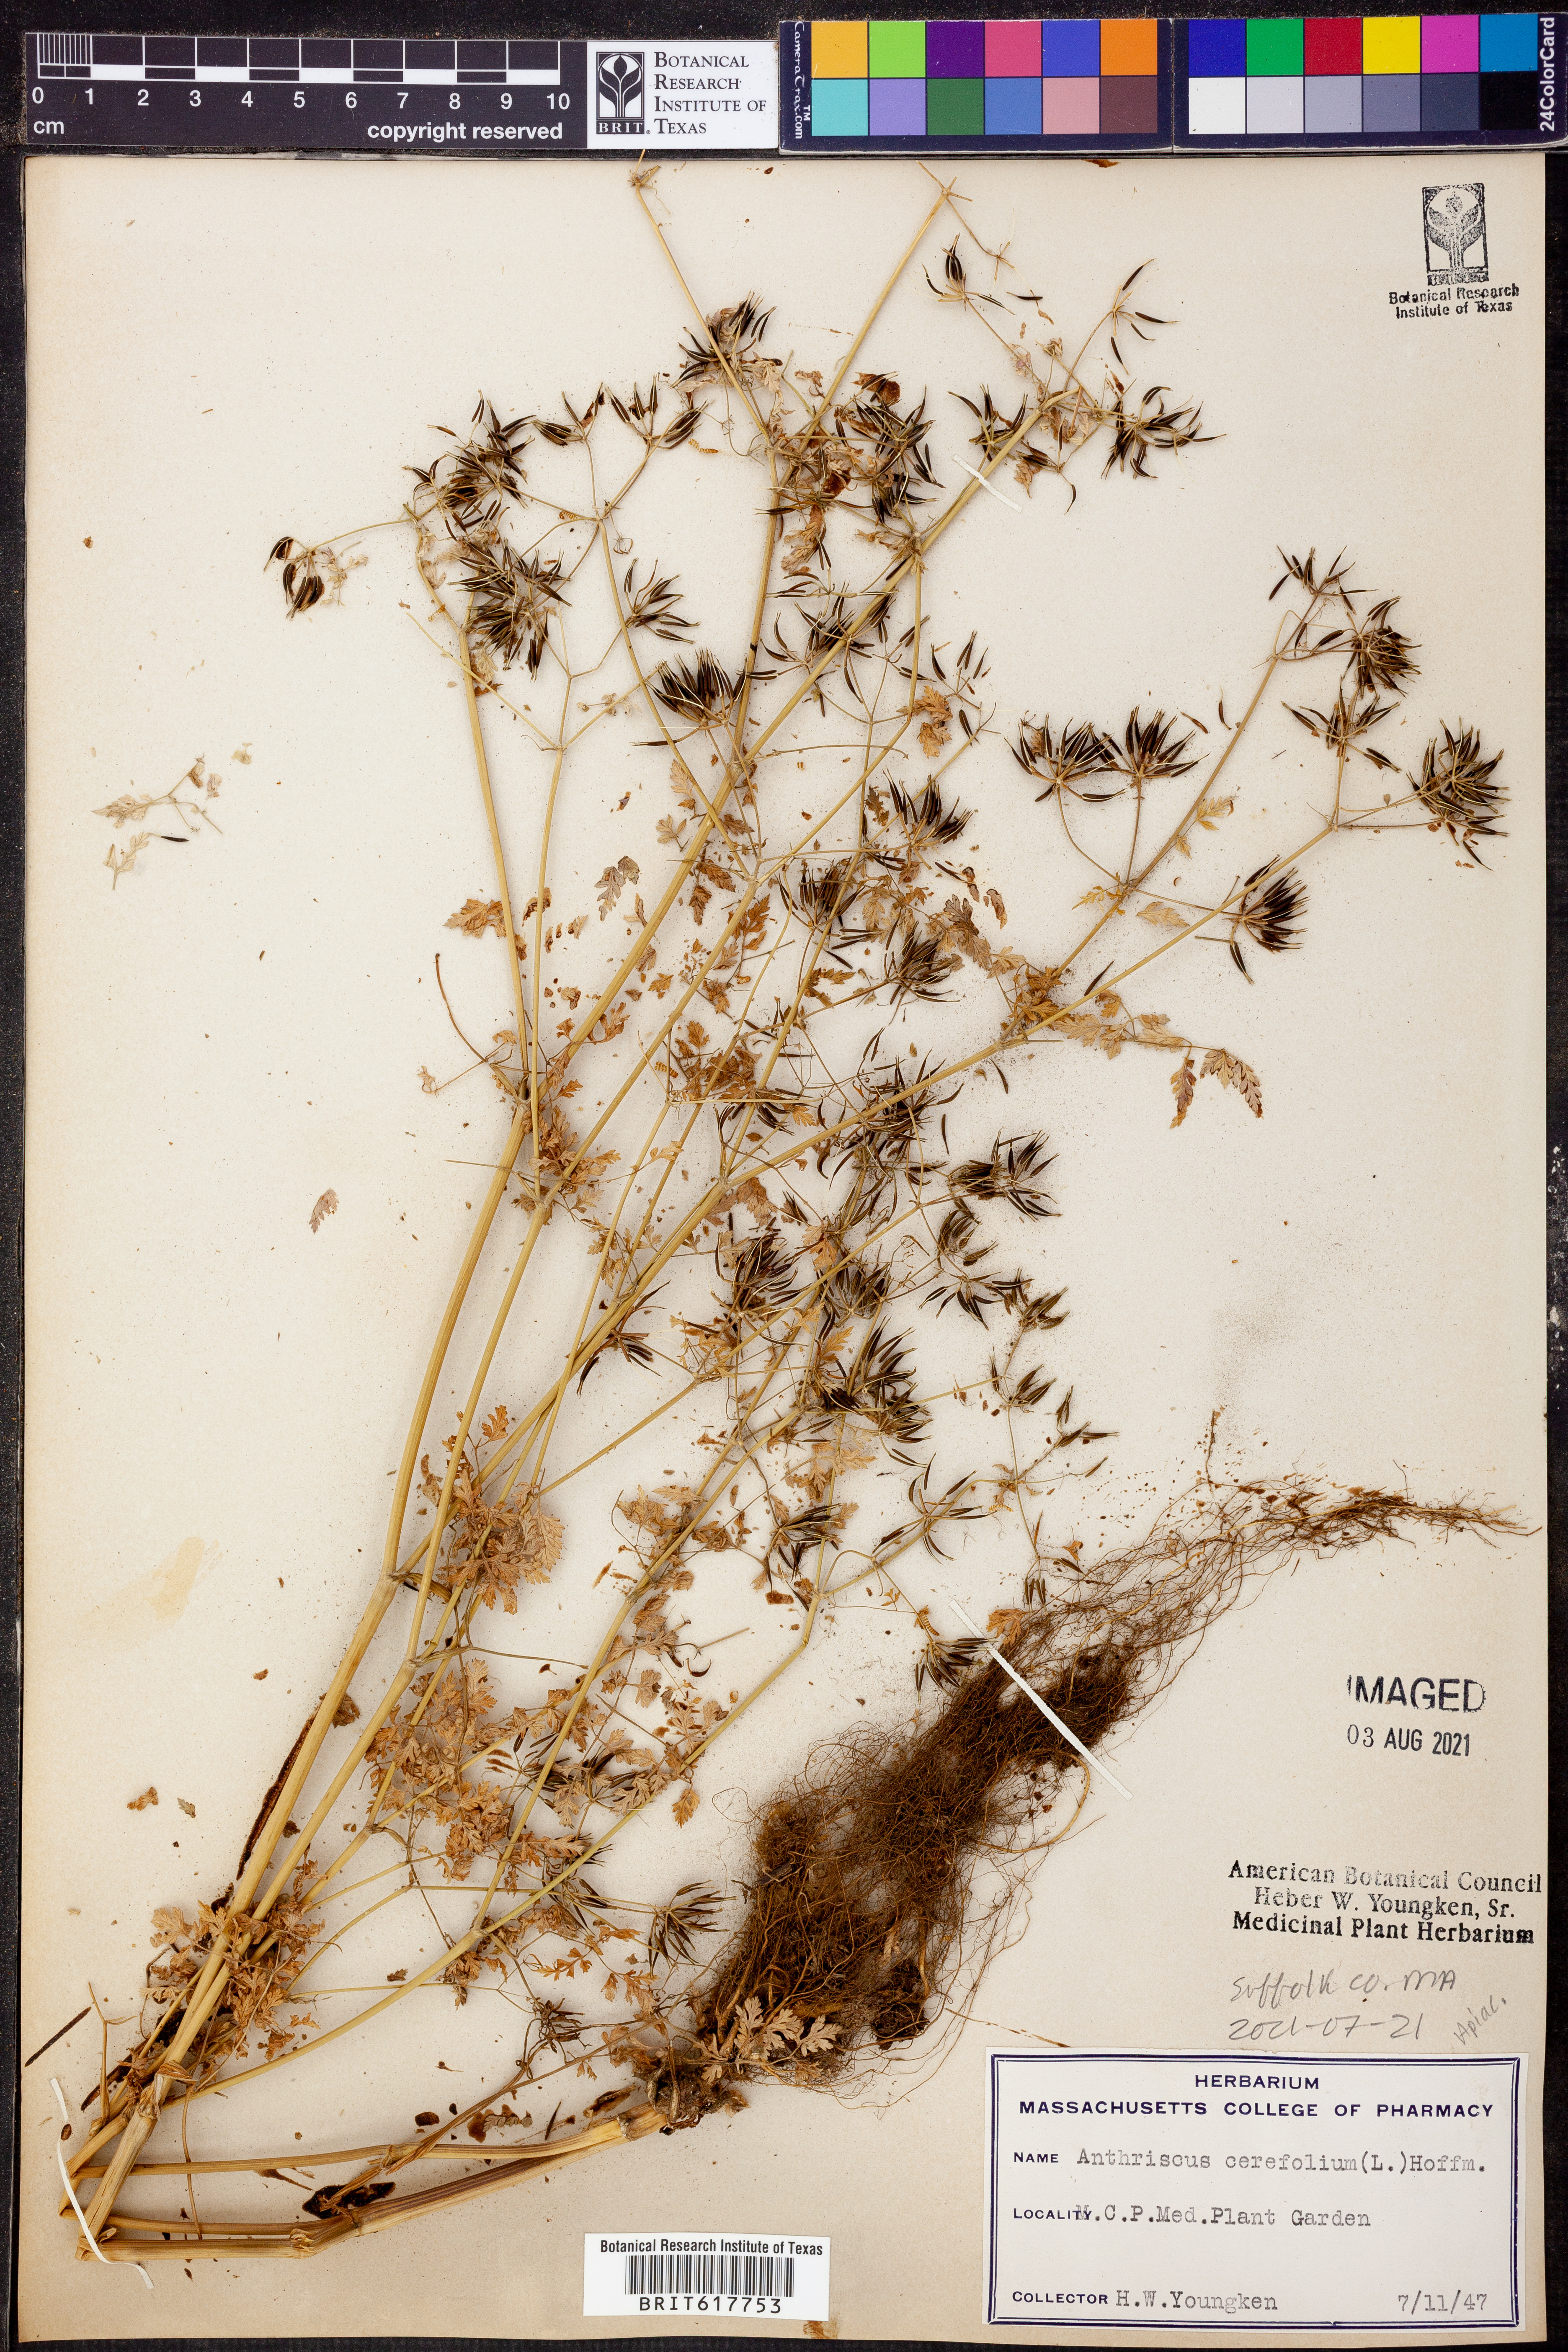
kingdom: Plantae
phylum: Tracheophyta
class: Magnoliopsida
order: Apiales
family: Apiaceae
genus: Anthriscus
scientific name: Anthriscus cerefolium
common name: Garden chervil
